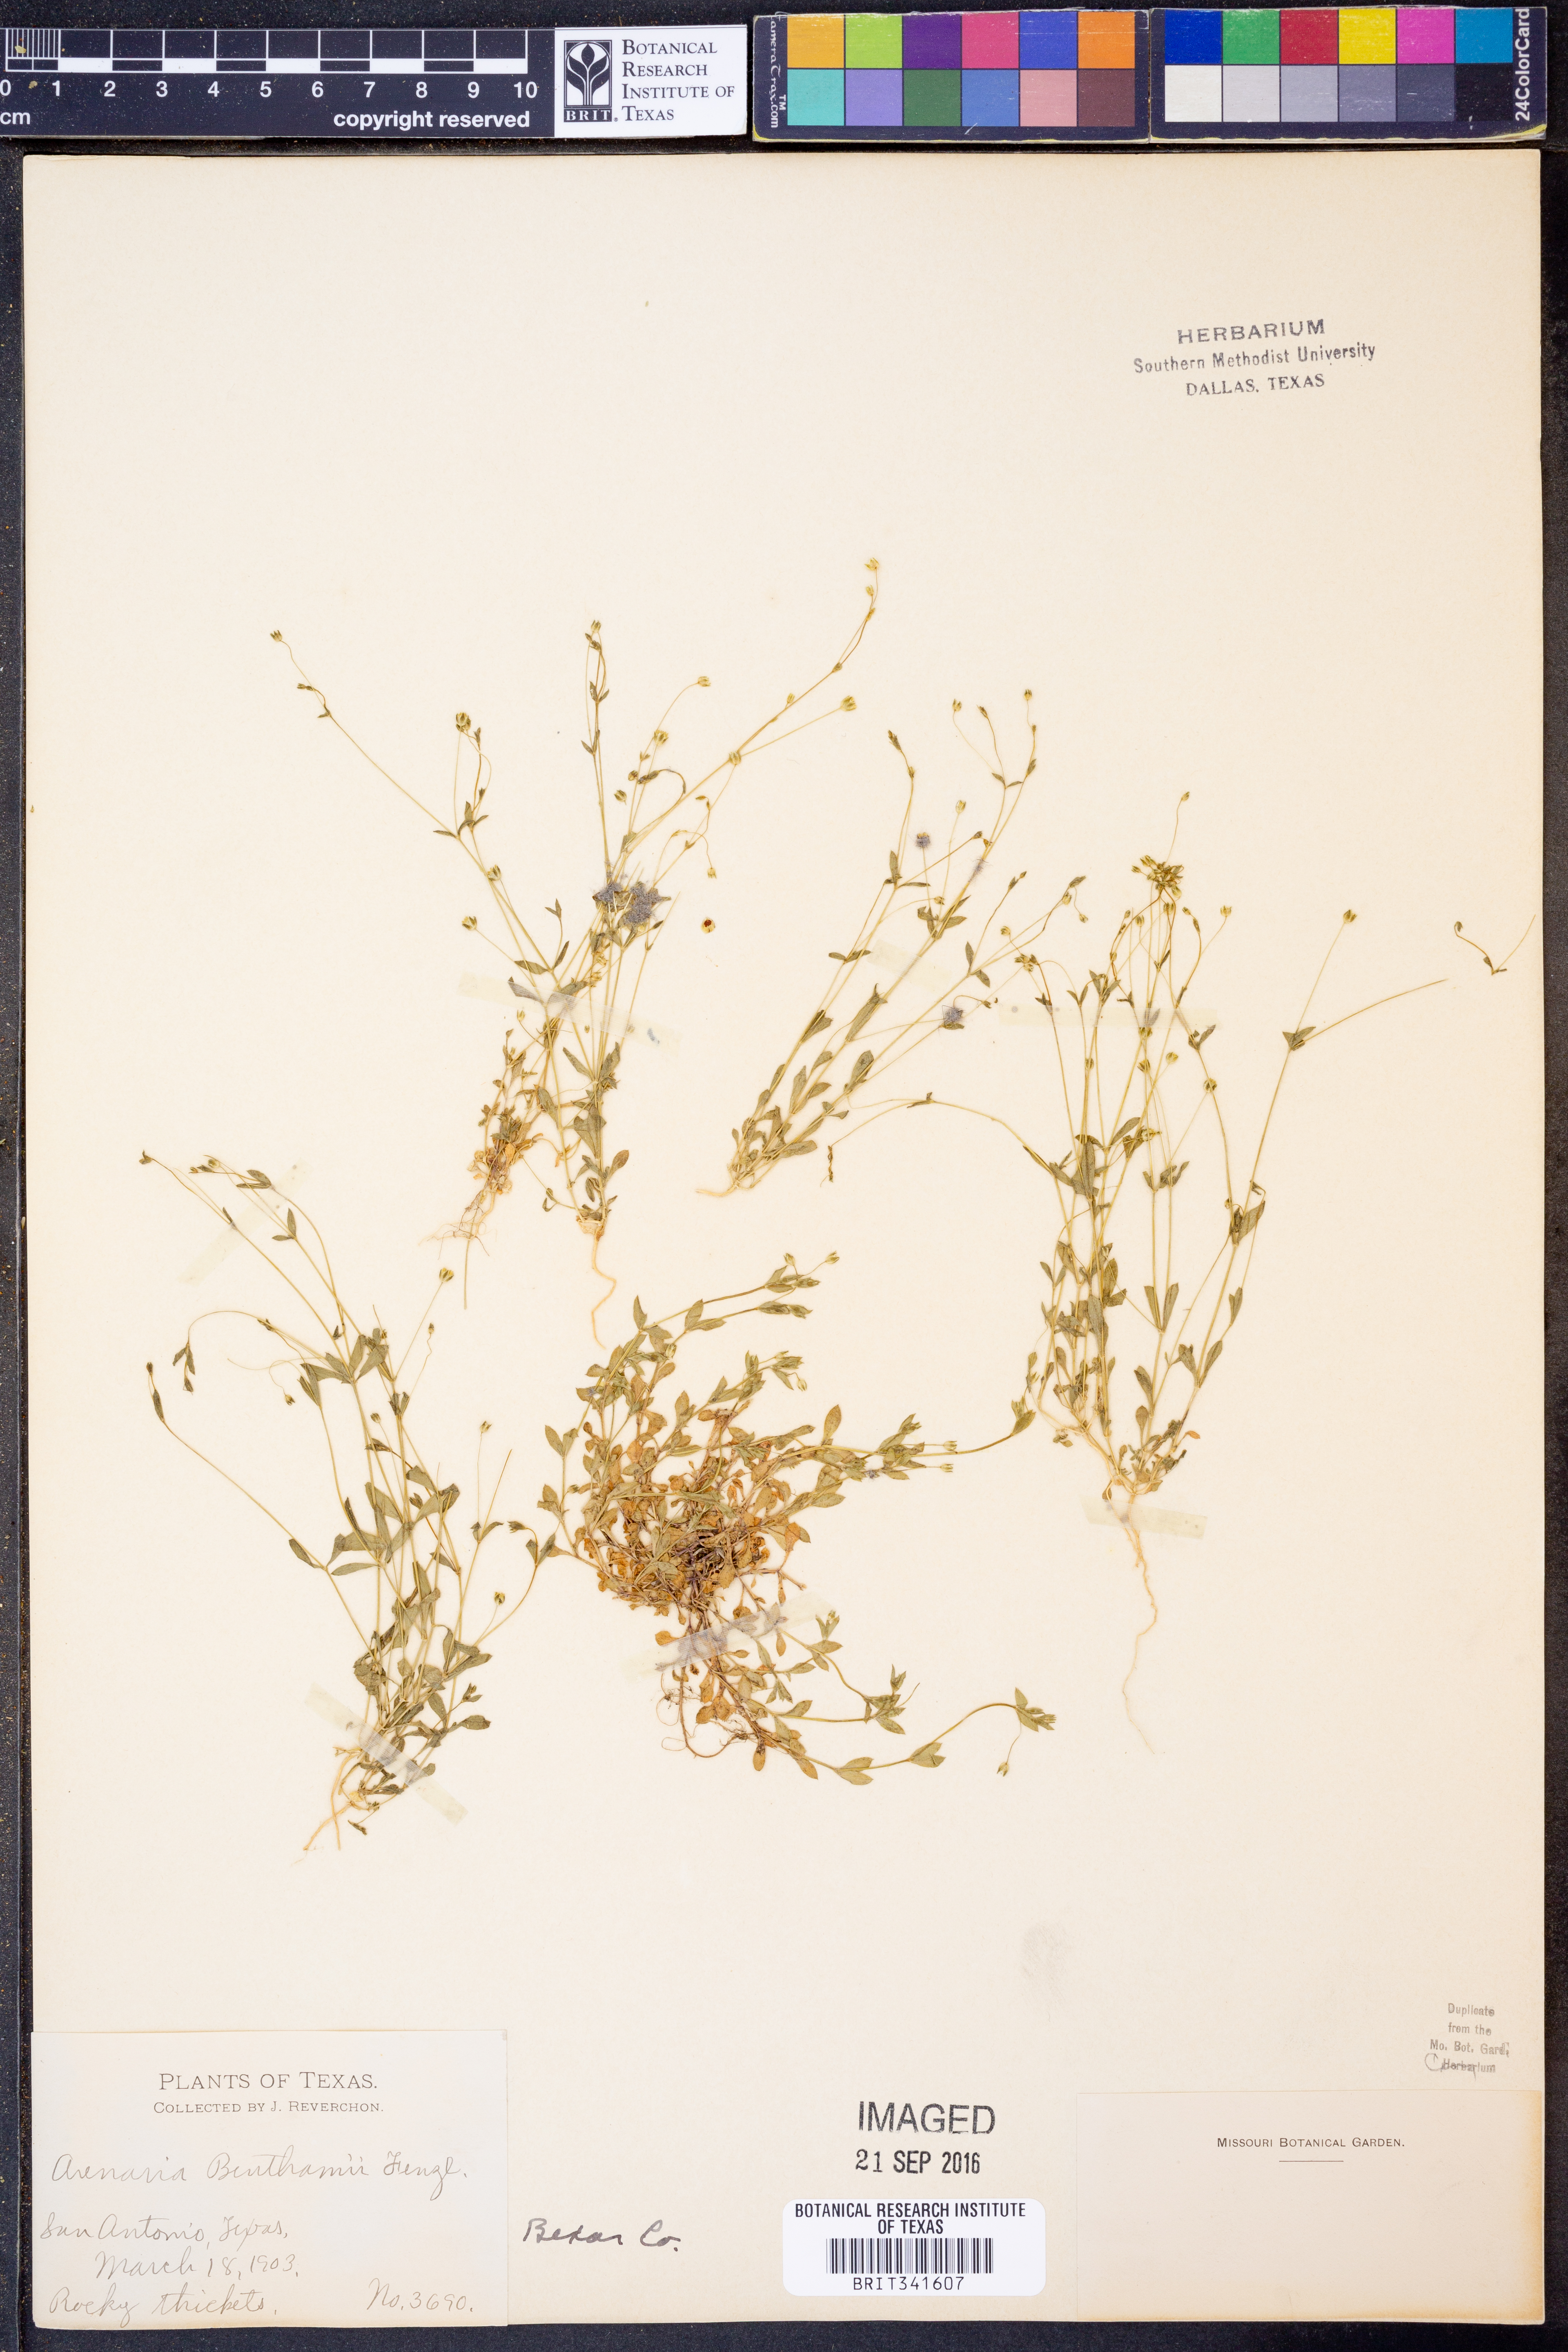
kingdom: Plantae
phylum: Tracheophyta
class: Magnoliopsida
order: Caryophyllales
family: Caryophyllaceae
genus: Arenaria
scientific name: Arenaria benthamii
